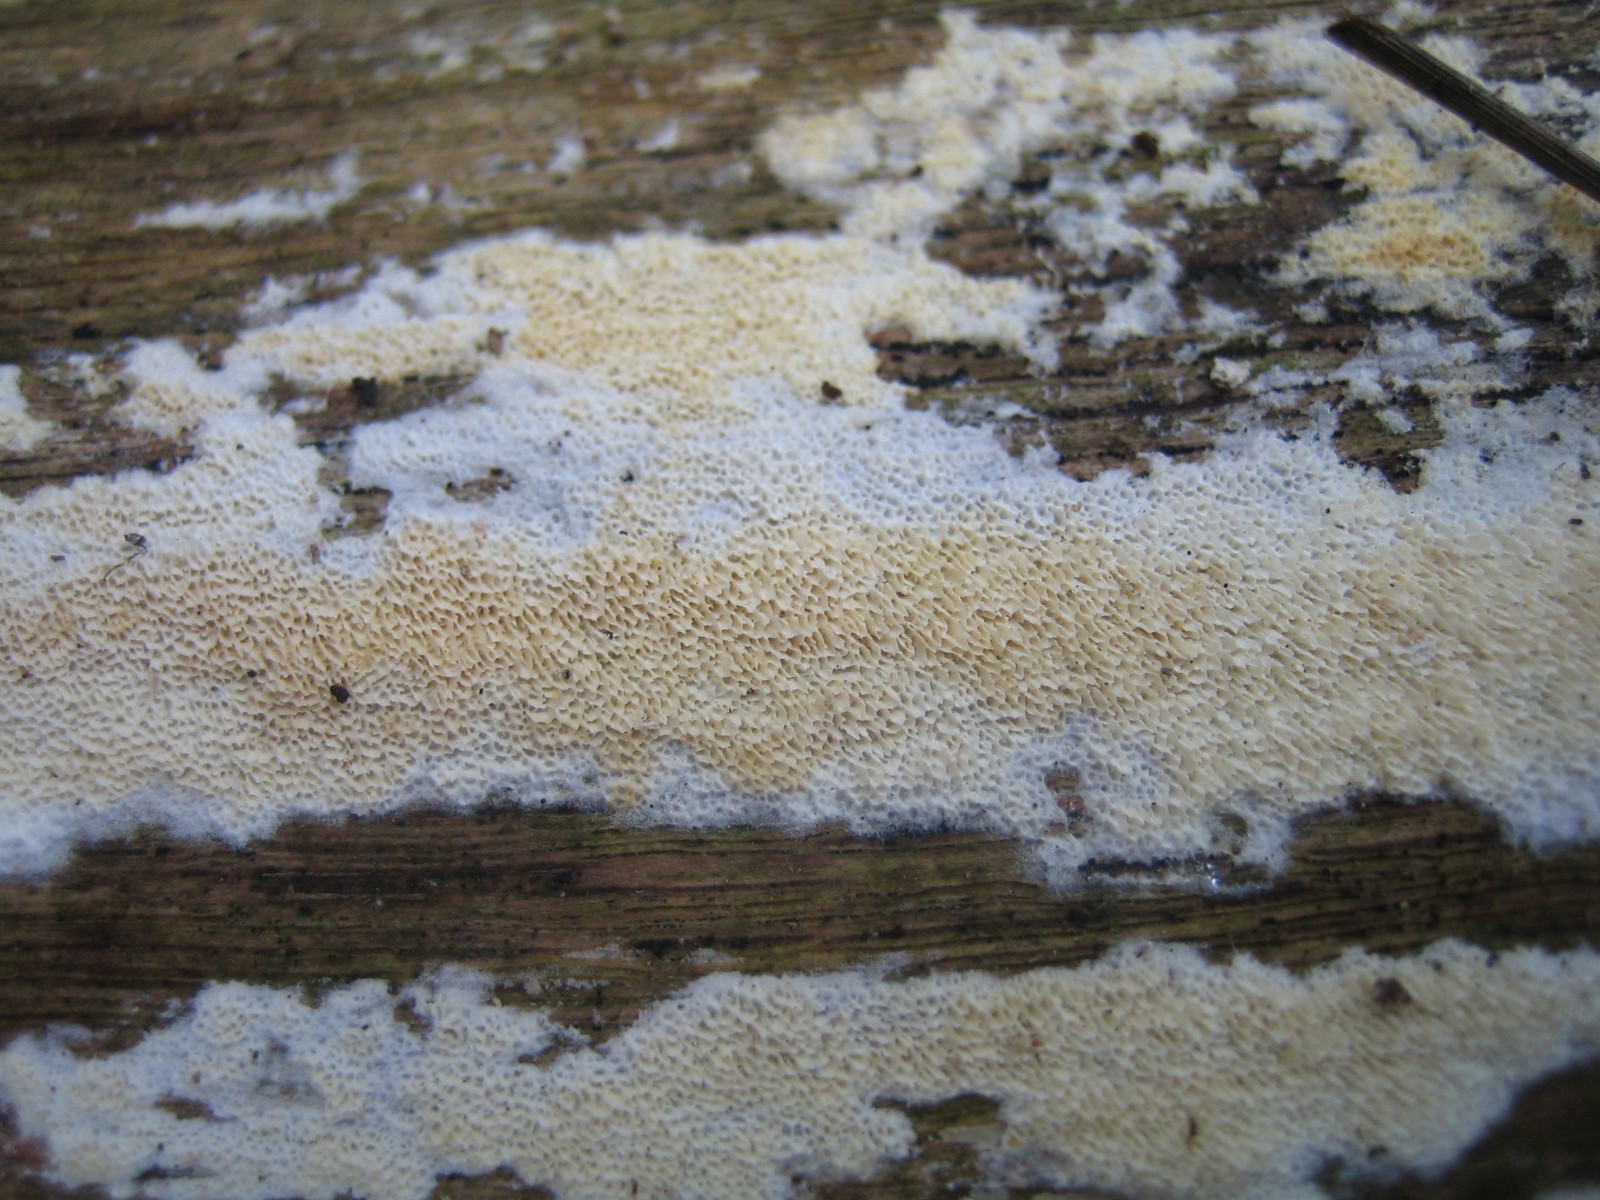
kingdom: Fungi
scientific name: Fungi
